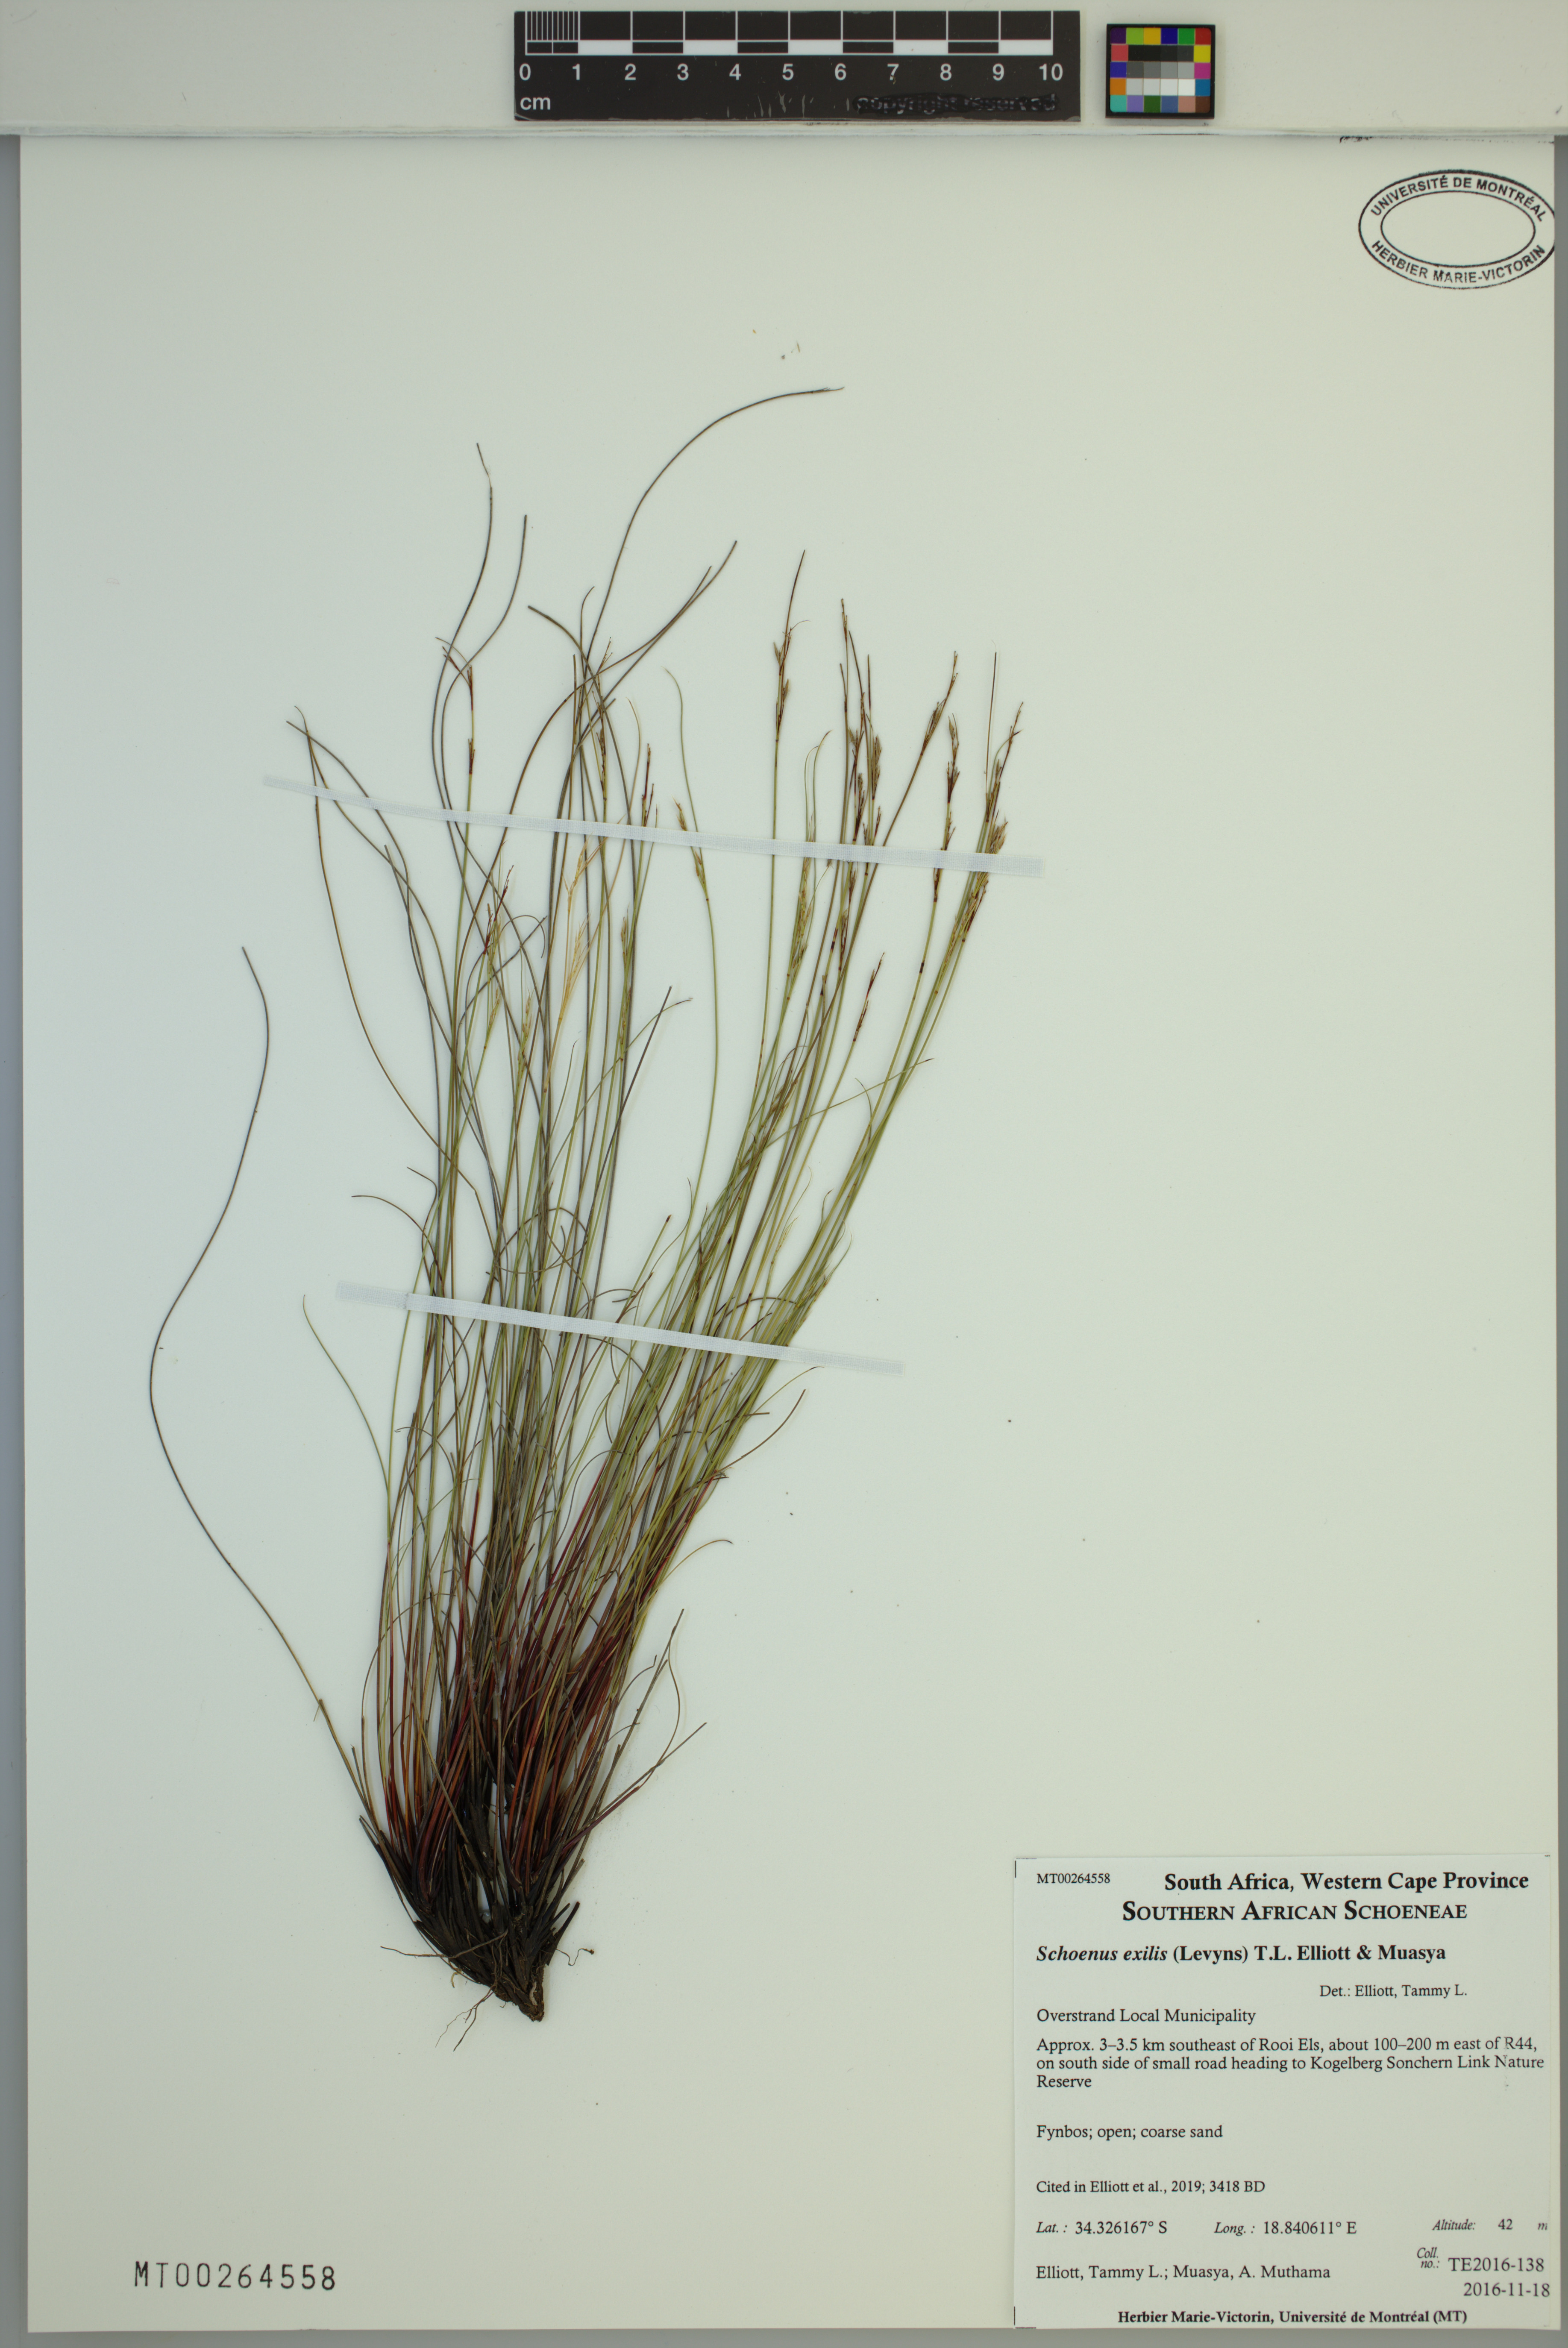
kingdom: Plantae
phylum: Tracheophyta
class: Liliopsida
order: Poales
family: Cyperaceae
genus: Schoenus
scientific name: Schoenus exilis
